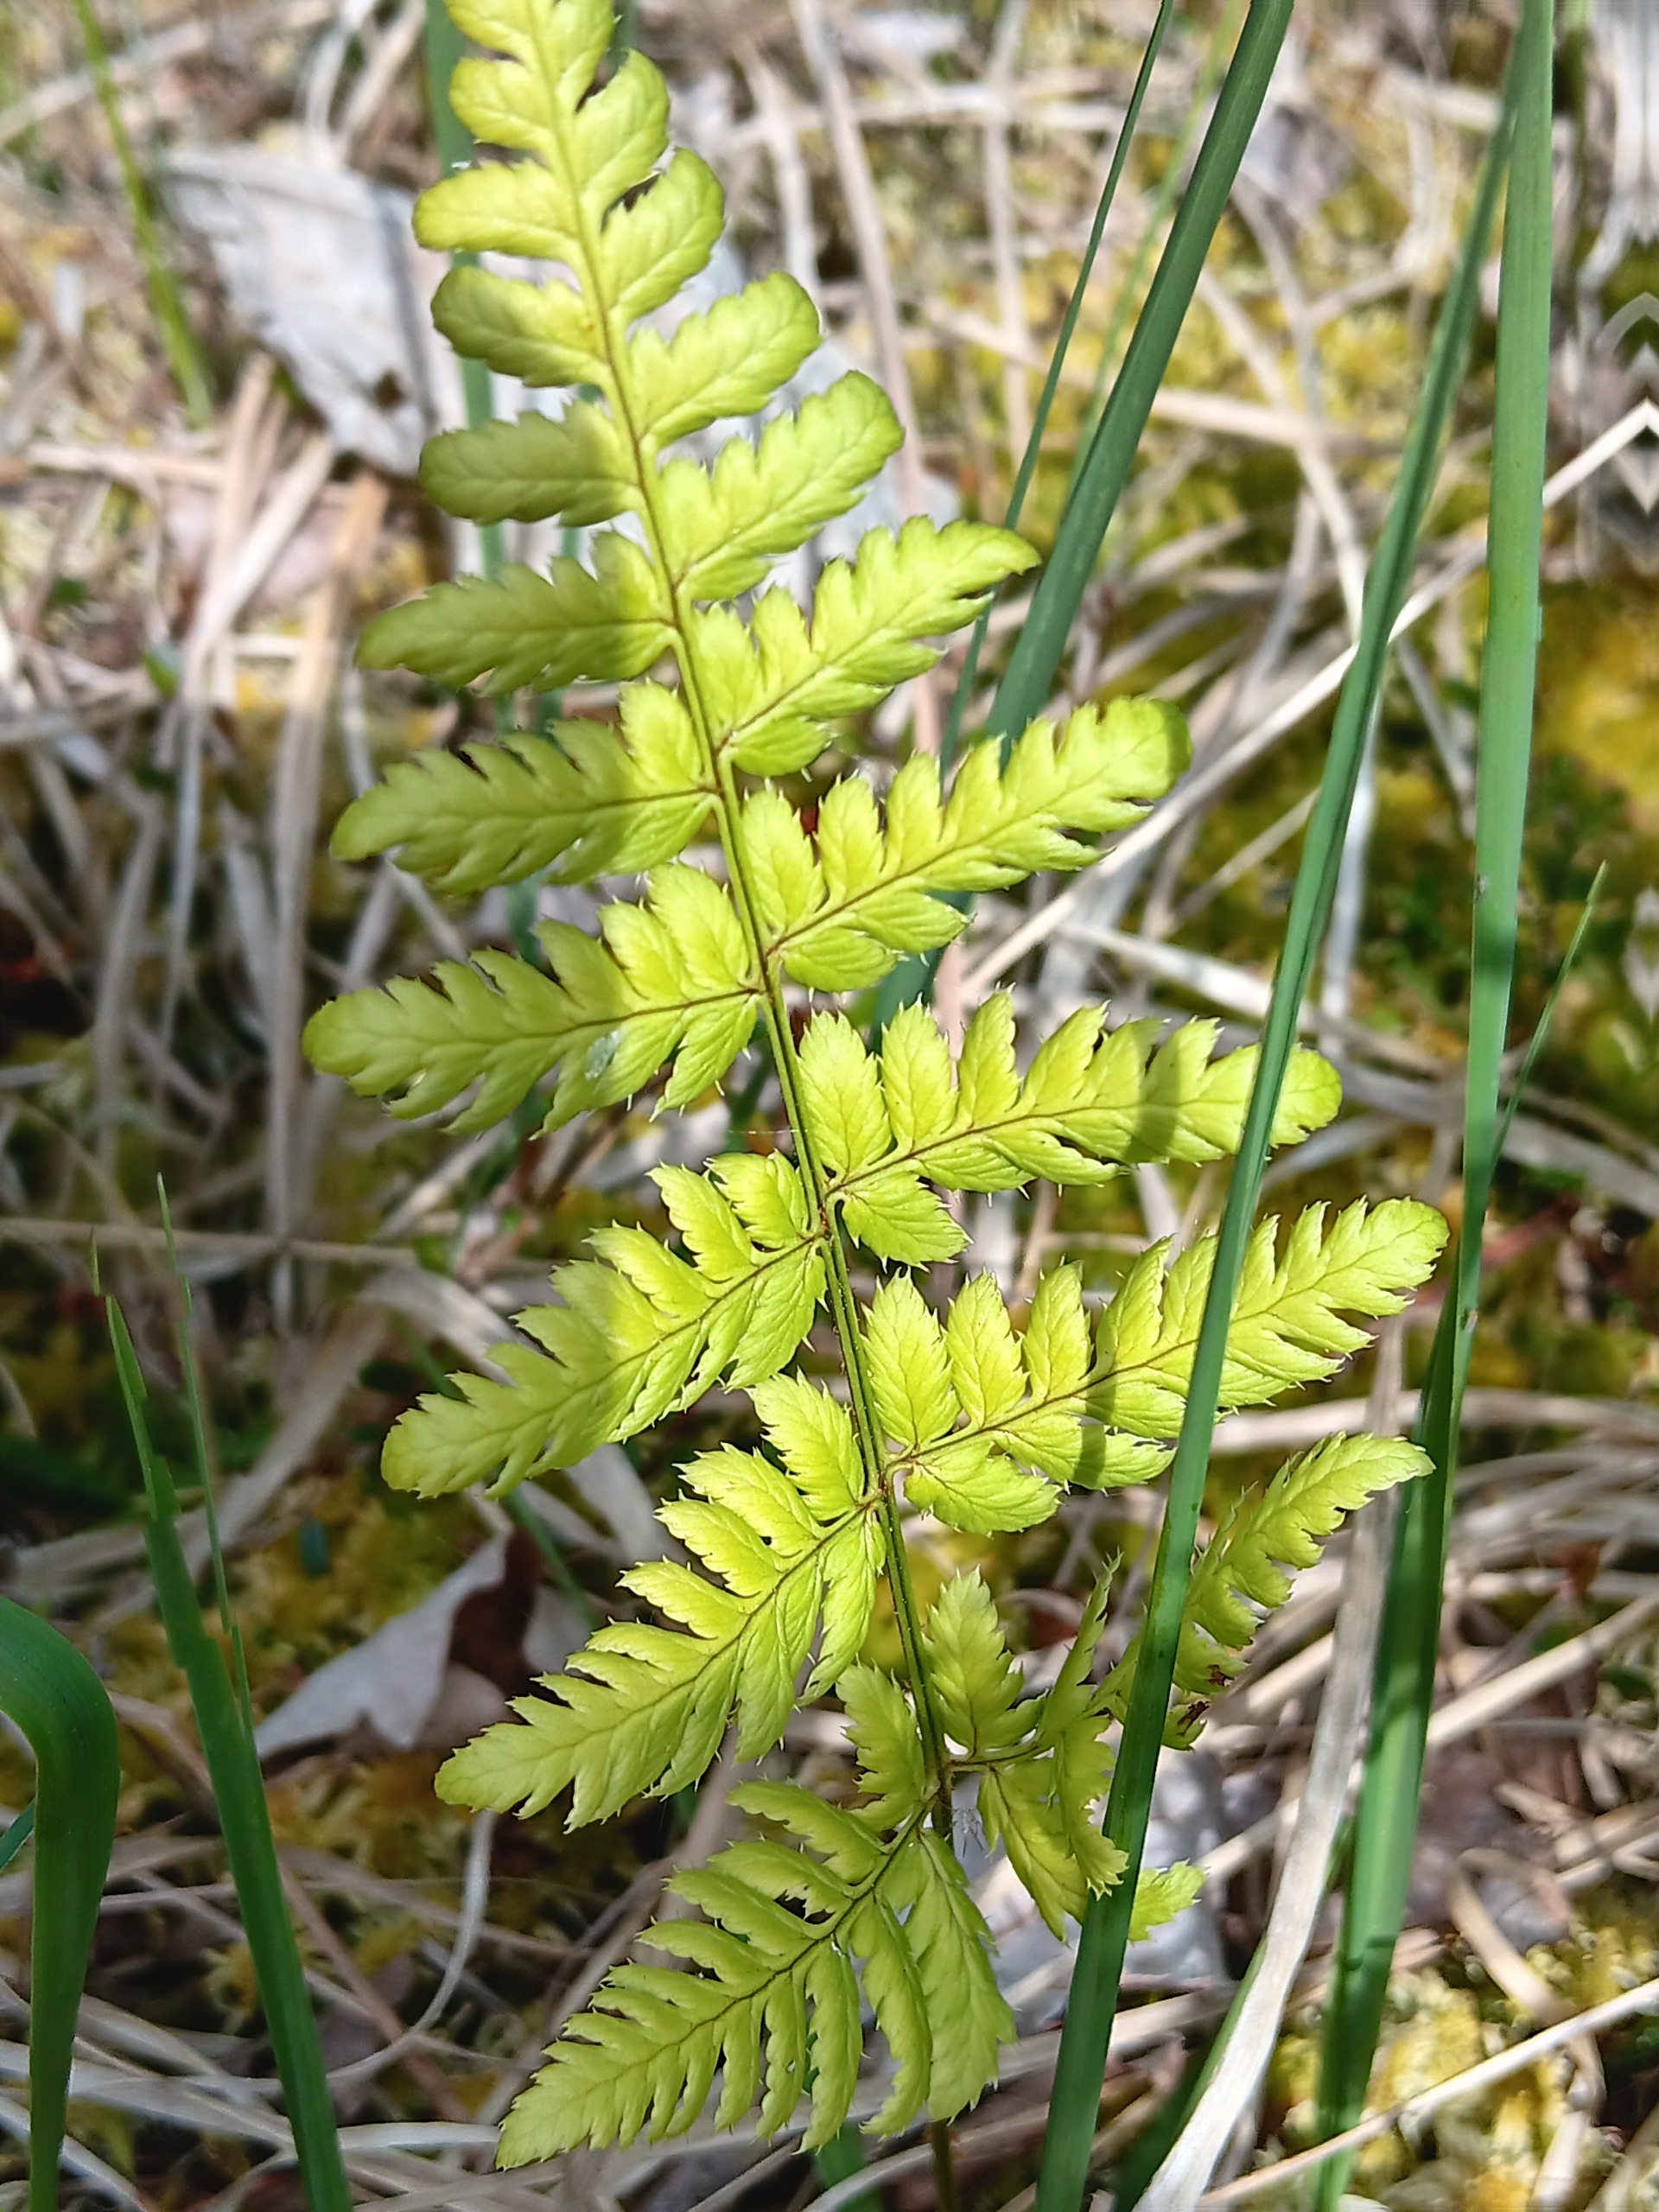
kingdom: Plantae
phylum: Tracheophyta
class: Polypodiopsida
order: Polypodiales
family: Dryopteridaceae
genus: Dryopteris
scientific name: Dryopteris carthusiana
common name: Smalbladet mangeløv
